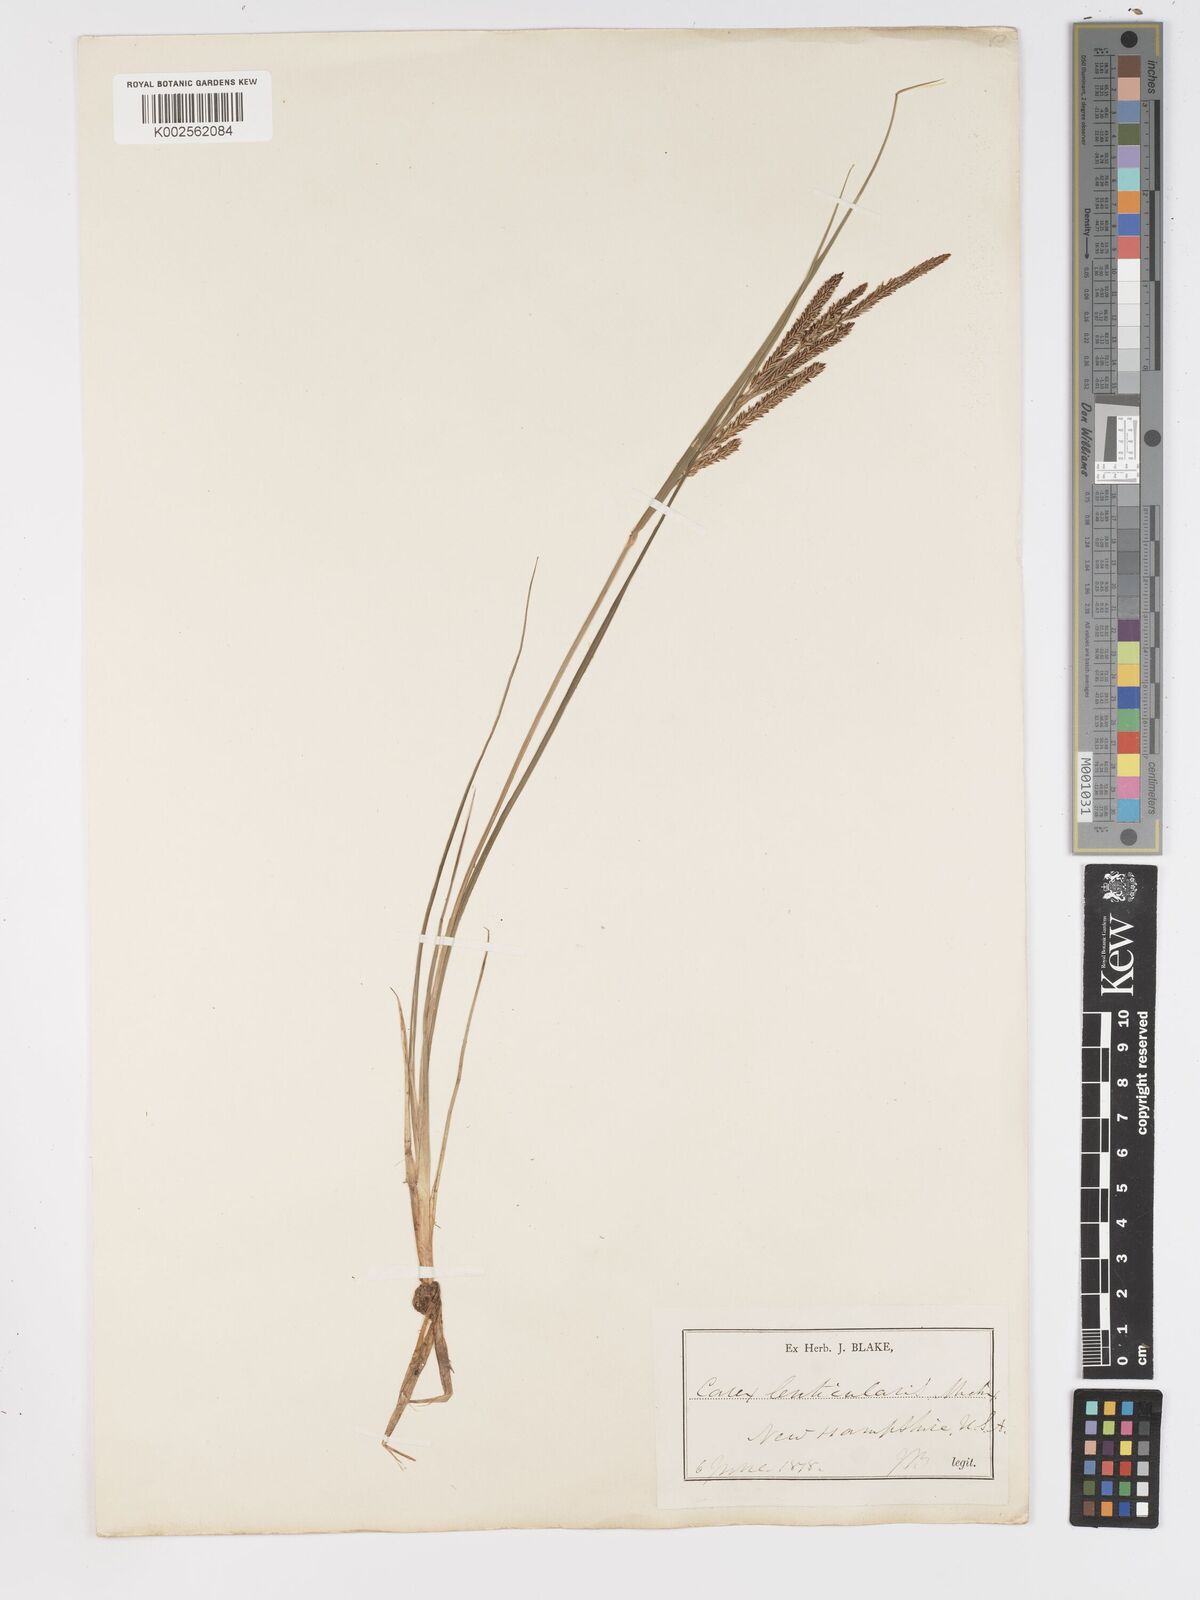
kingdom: Plantae
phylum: Tracheophyta
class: Liliopsida
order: Poales
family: Cyperaceae
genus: Carex
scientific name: Carex lenticularis
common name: Lakeshore sedge
